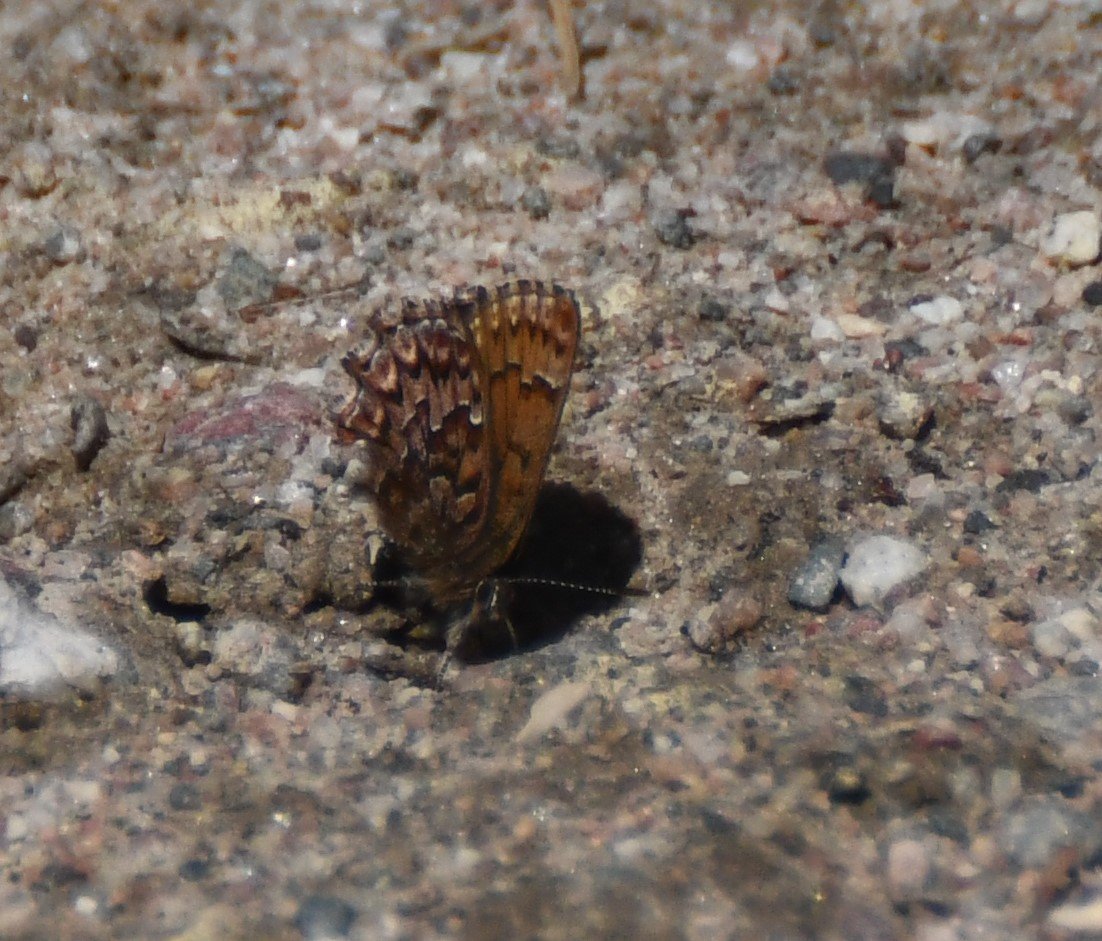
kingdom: Animalia
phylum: Arthropoda
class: Insecta
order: Lepidoptera
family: Lycaenidae
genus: Incisalia
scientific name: Incisalia eryphon
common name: Western Pine Elfin
